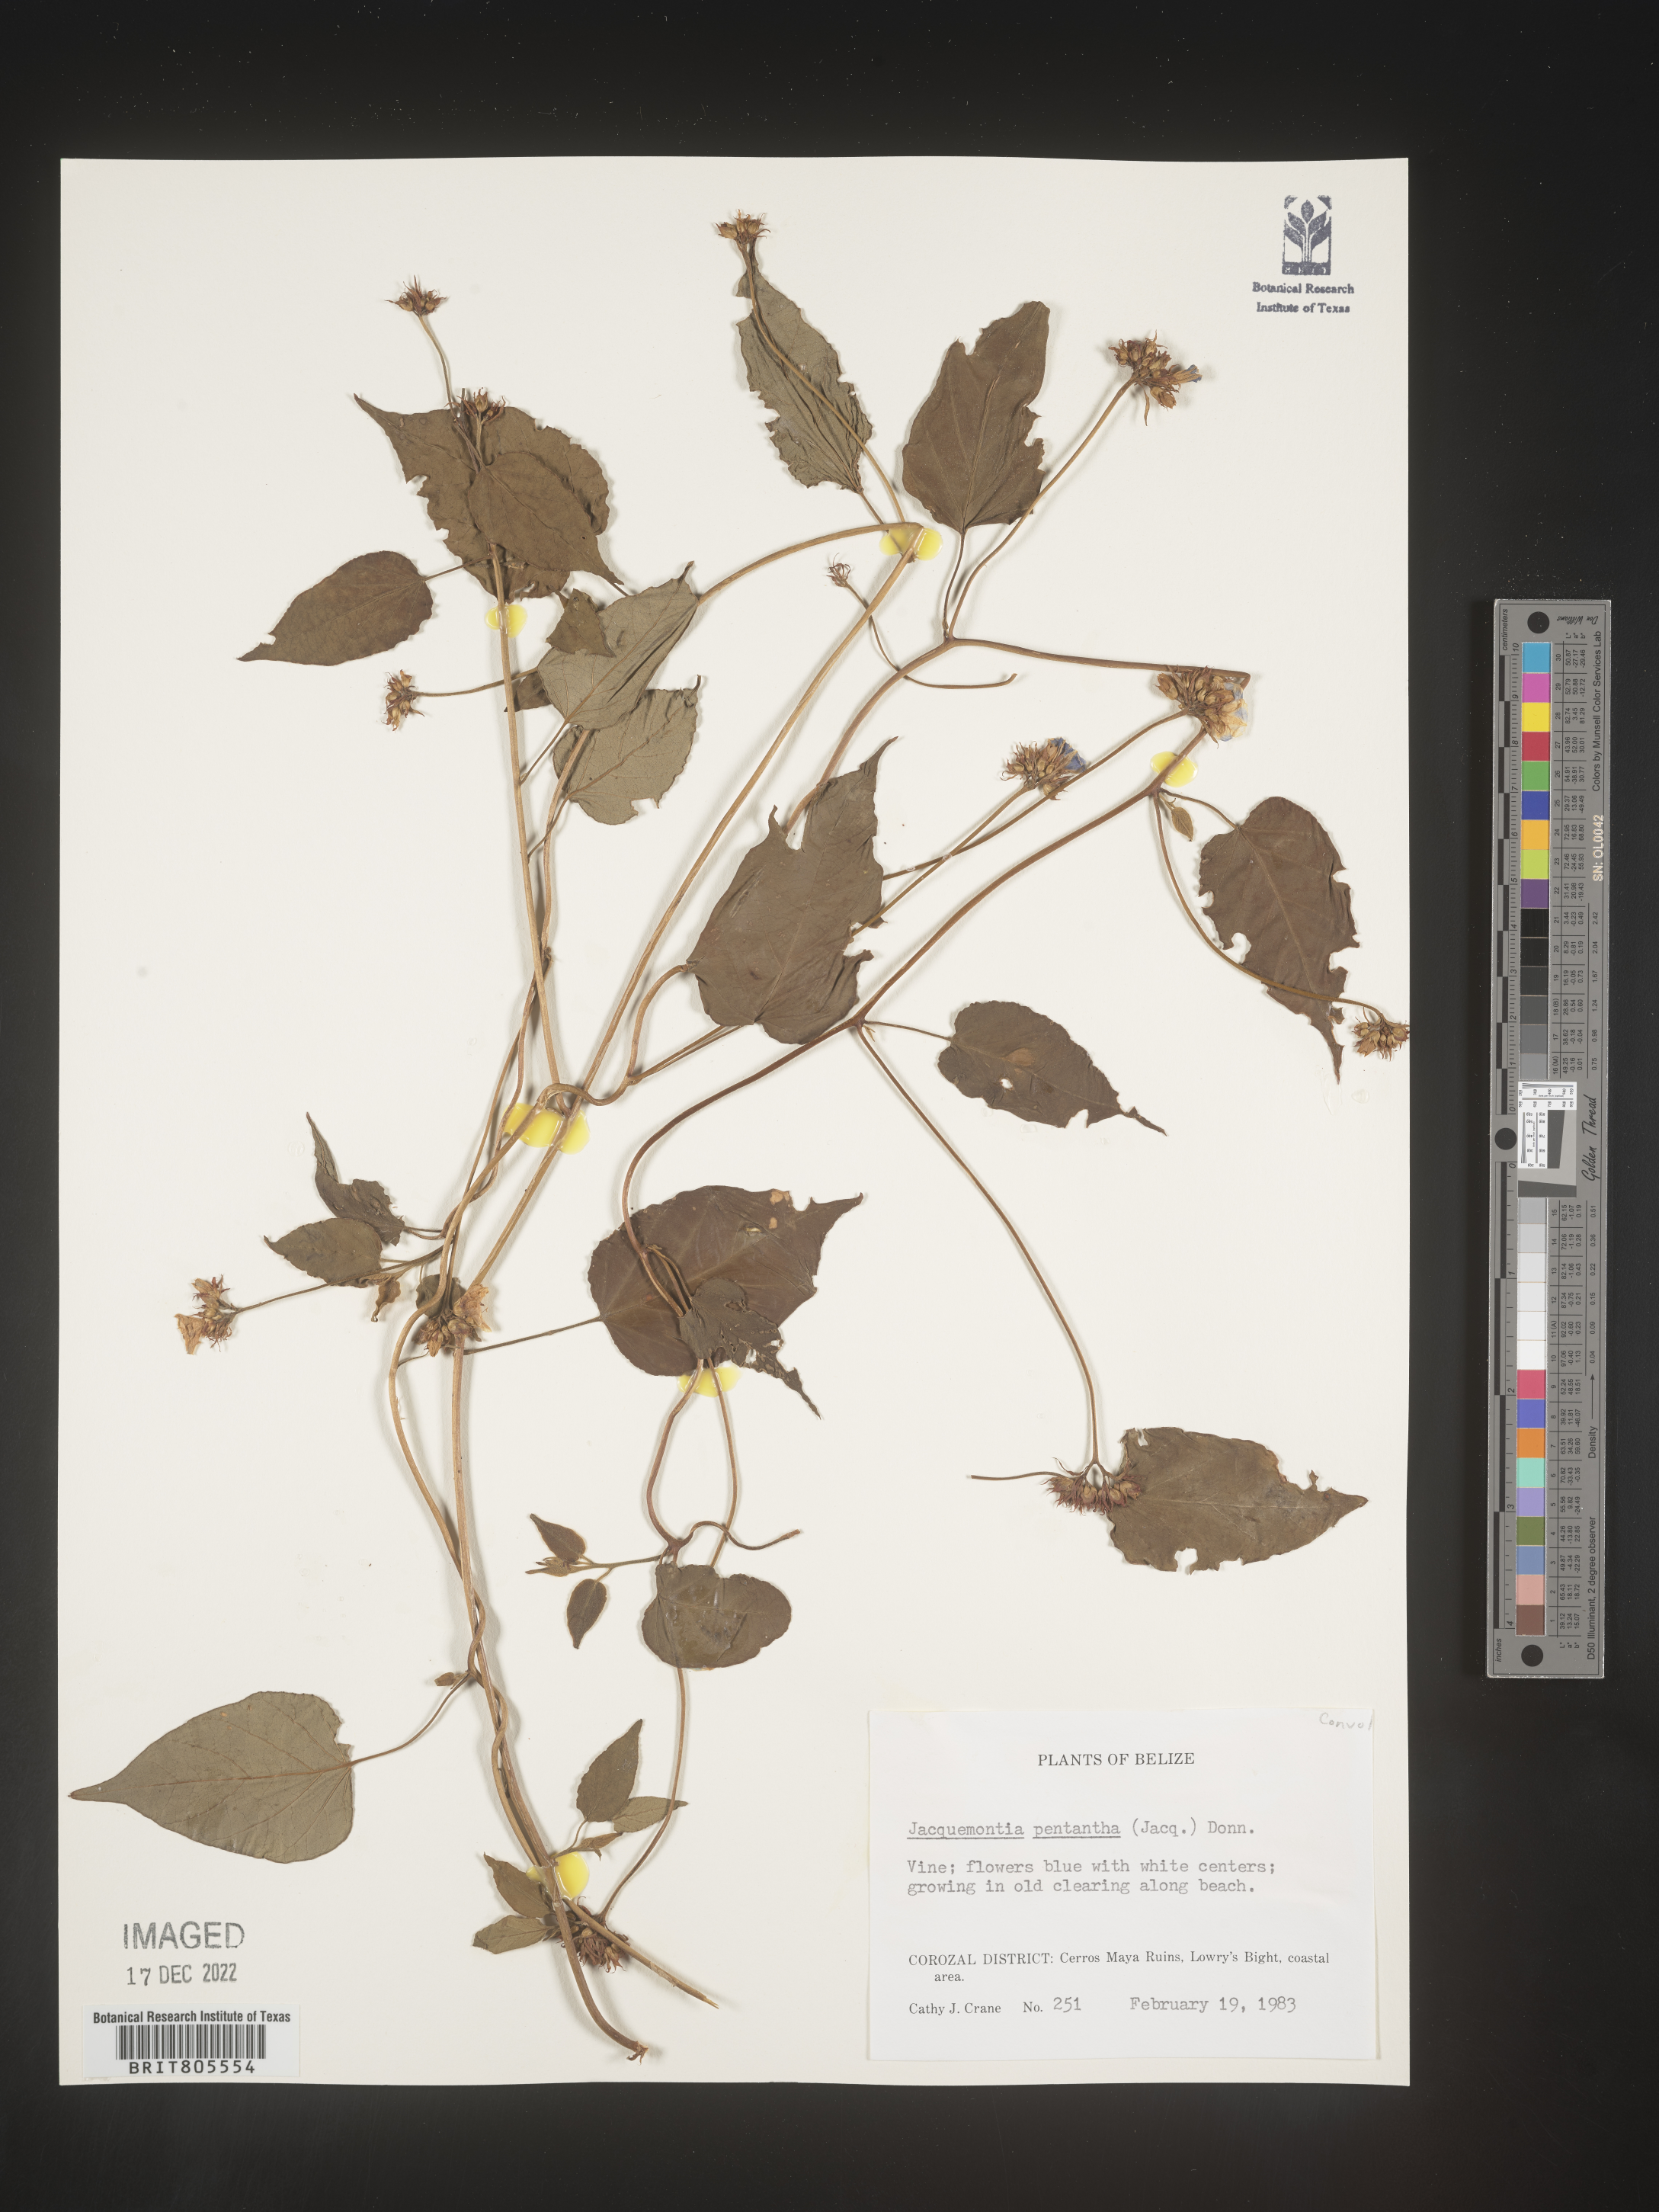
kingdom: Plantae
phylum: Tracheophyta
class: Magnoliopsida
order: Solanales
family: Convolvulaceae
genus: Jacquemontia
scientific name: Jacquemontia
